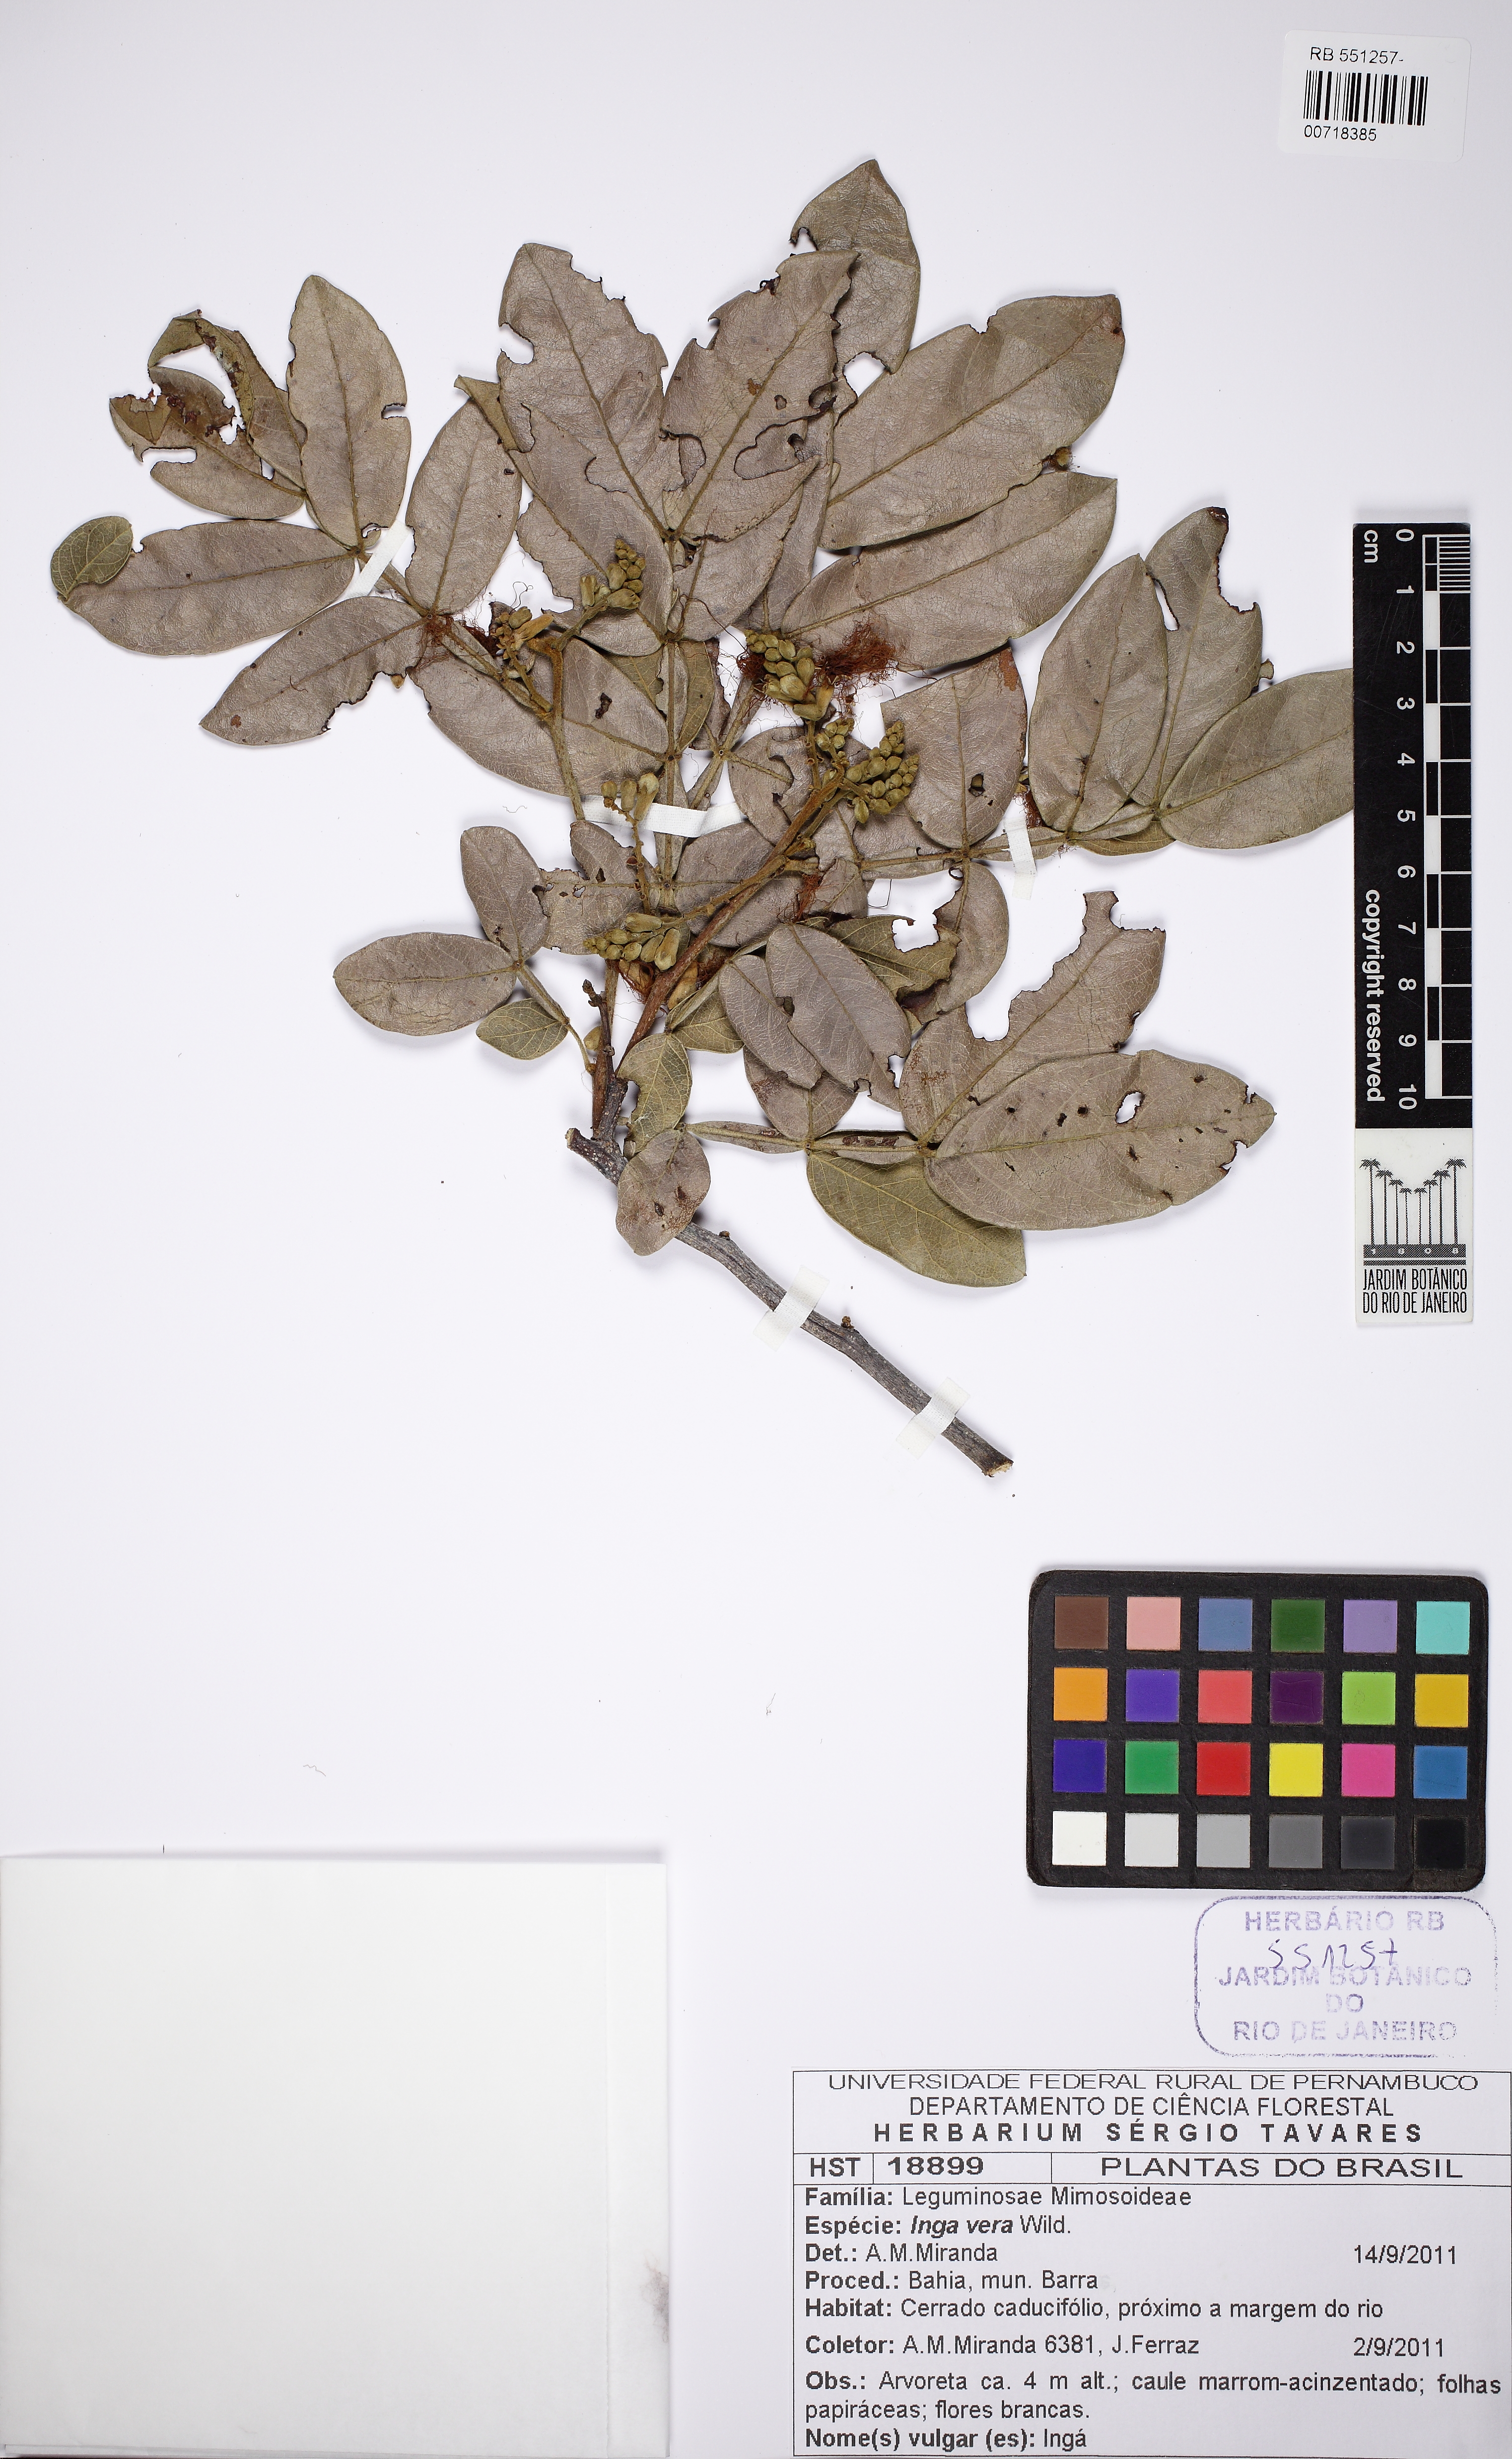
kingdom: Plantae
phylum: Tracheophyta
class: Magnoliopsida
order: Fabales
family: Fabaceae
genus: Inga
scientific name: Inga vera
